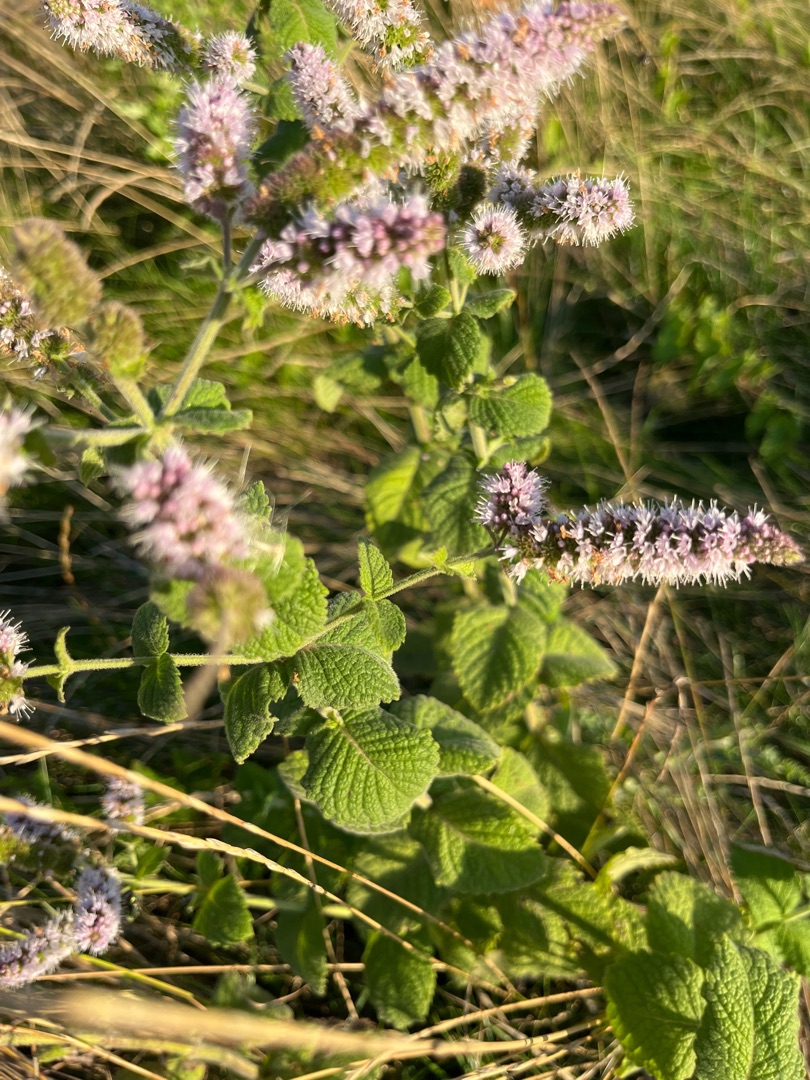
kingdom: Plantae
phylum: Tracheophyta
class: Magnoliopsida
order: Lamiales
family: Lamiaceae
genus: Mentha
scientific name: Mentha rotundifolia
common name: Grå mynte × rundbladet mynte
